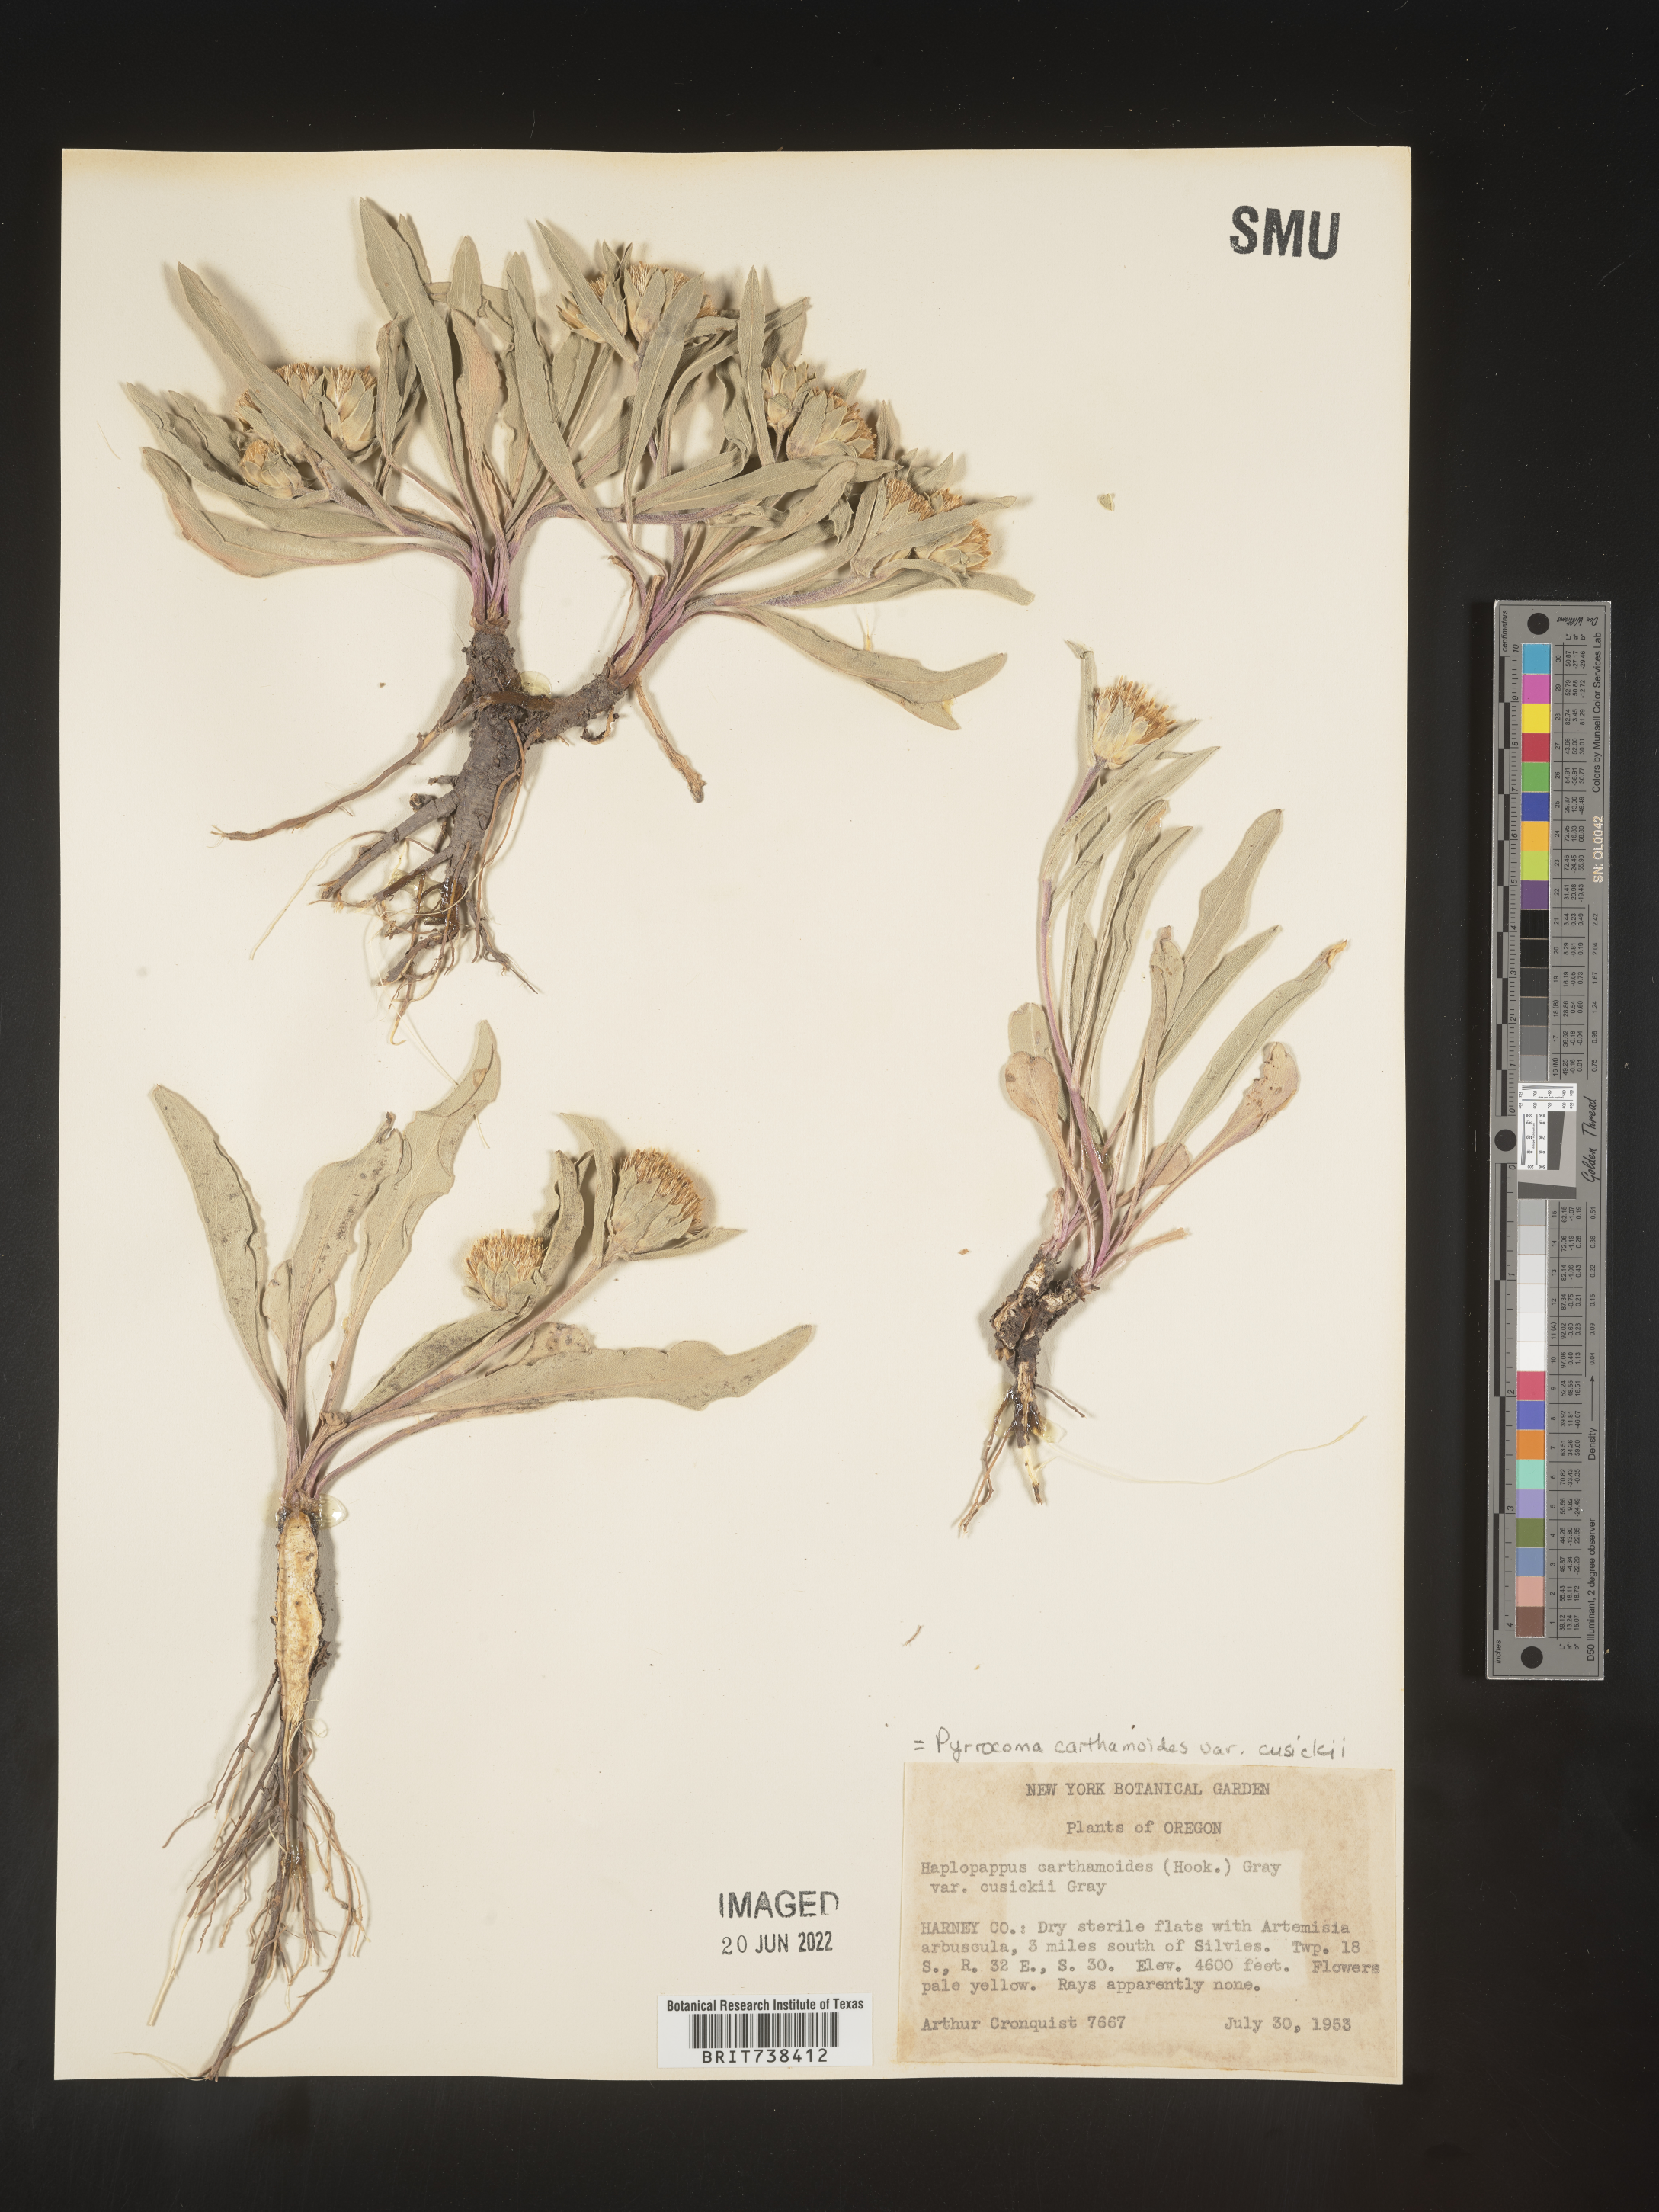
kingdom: Plantae
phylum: Tracheophyta
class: Magnoliopsida
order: Asterales
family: Asteraceae
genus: Pyrrocoma
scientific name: Pyrrocoma carthamoides
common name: Large-flower goldenweed
